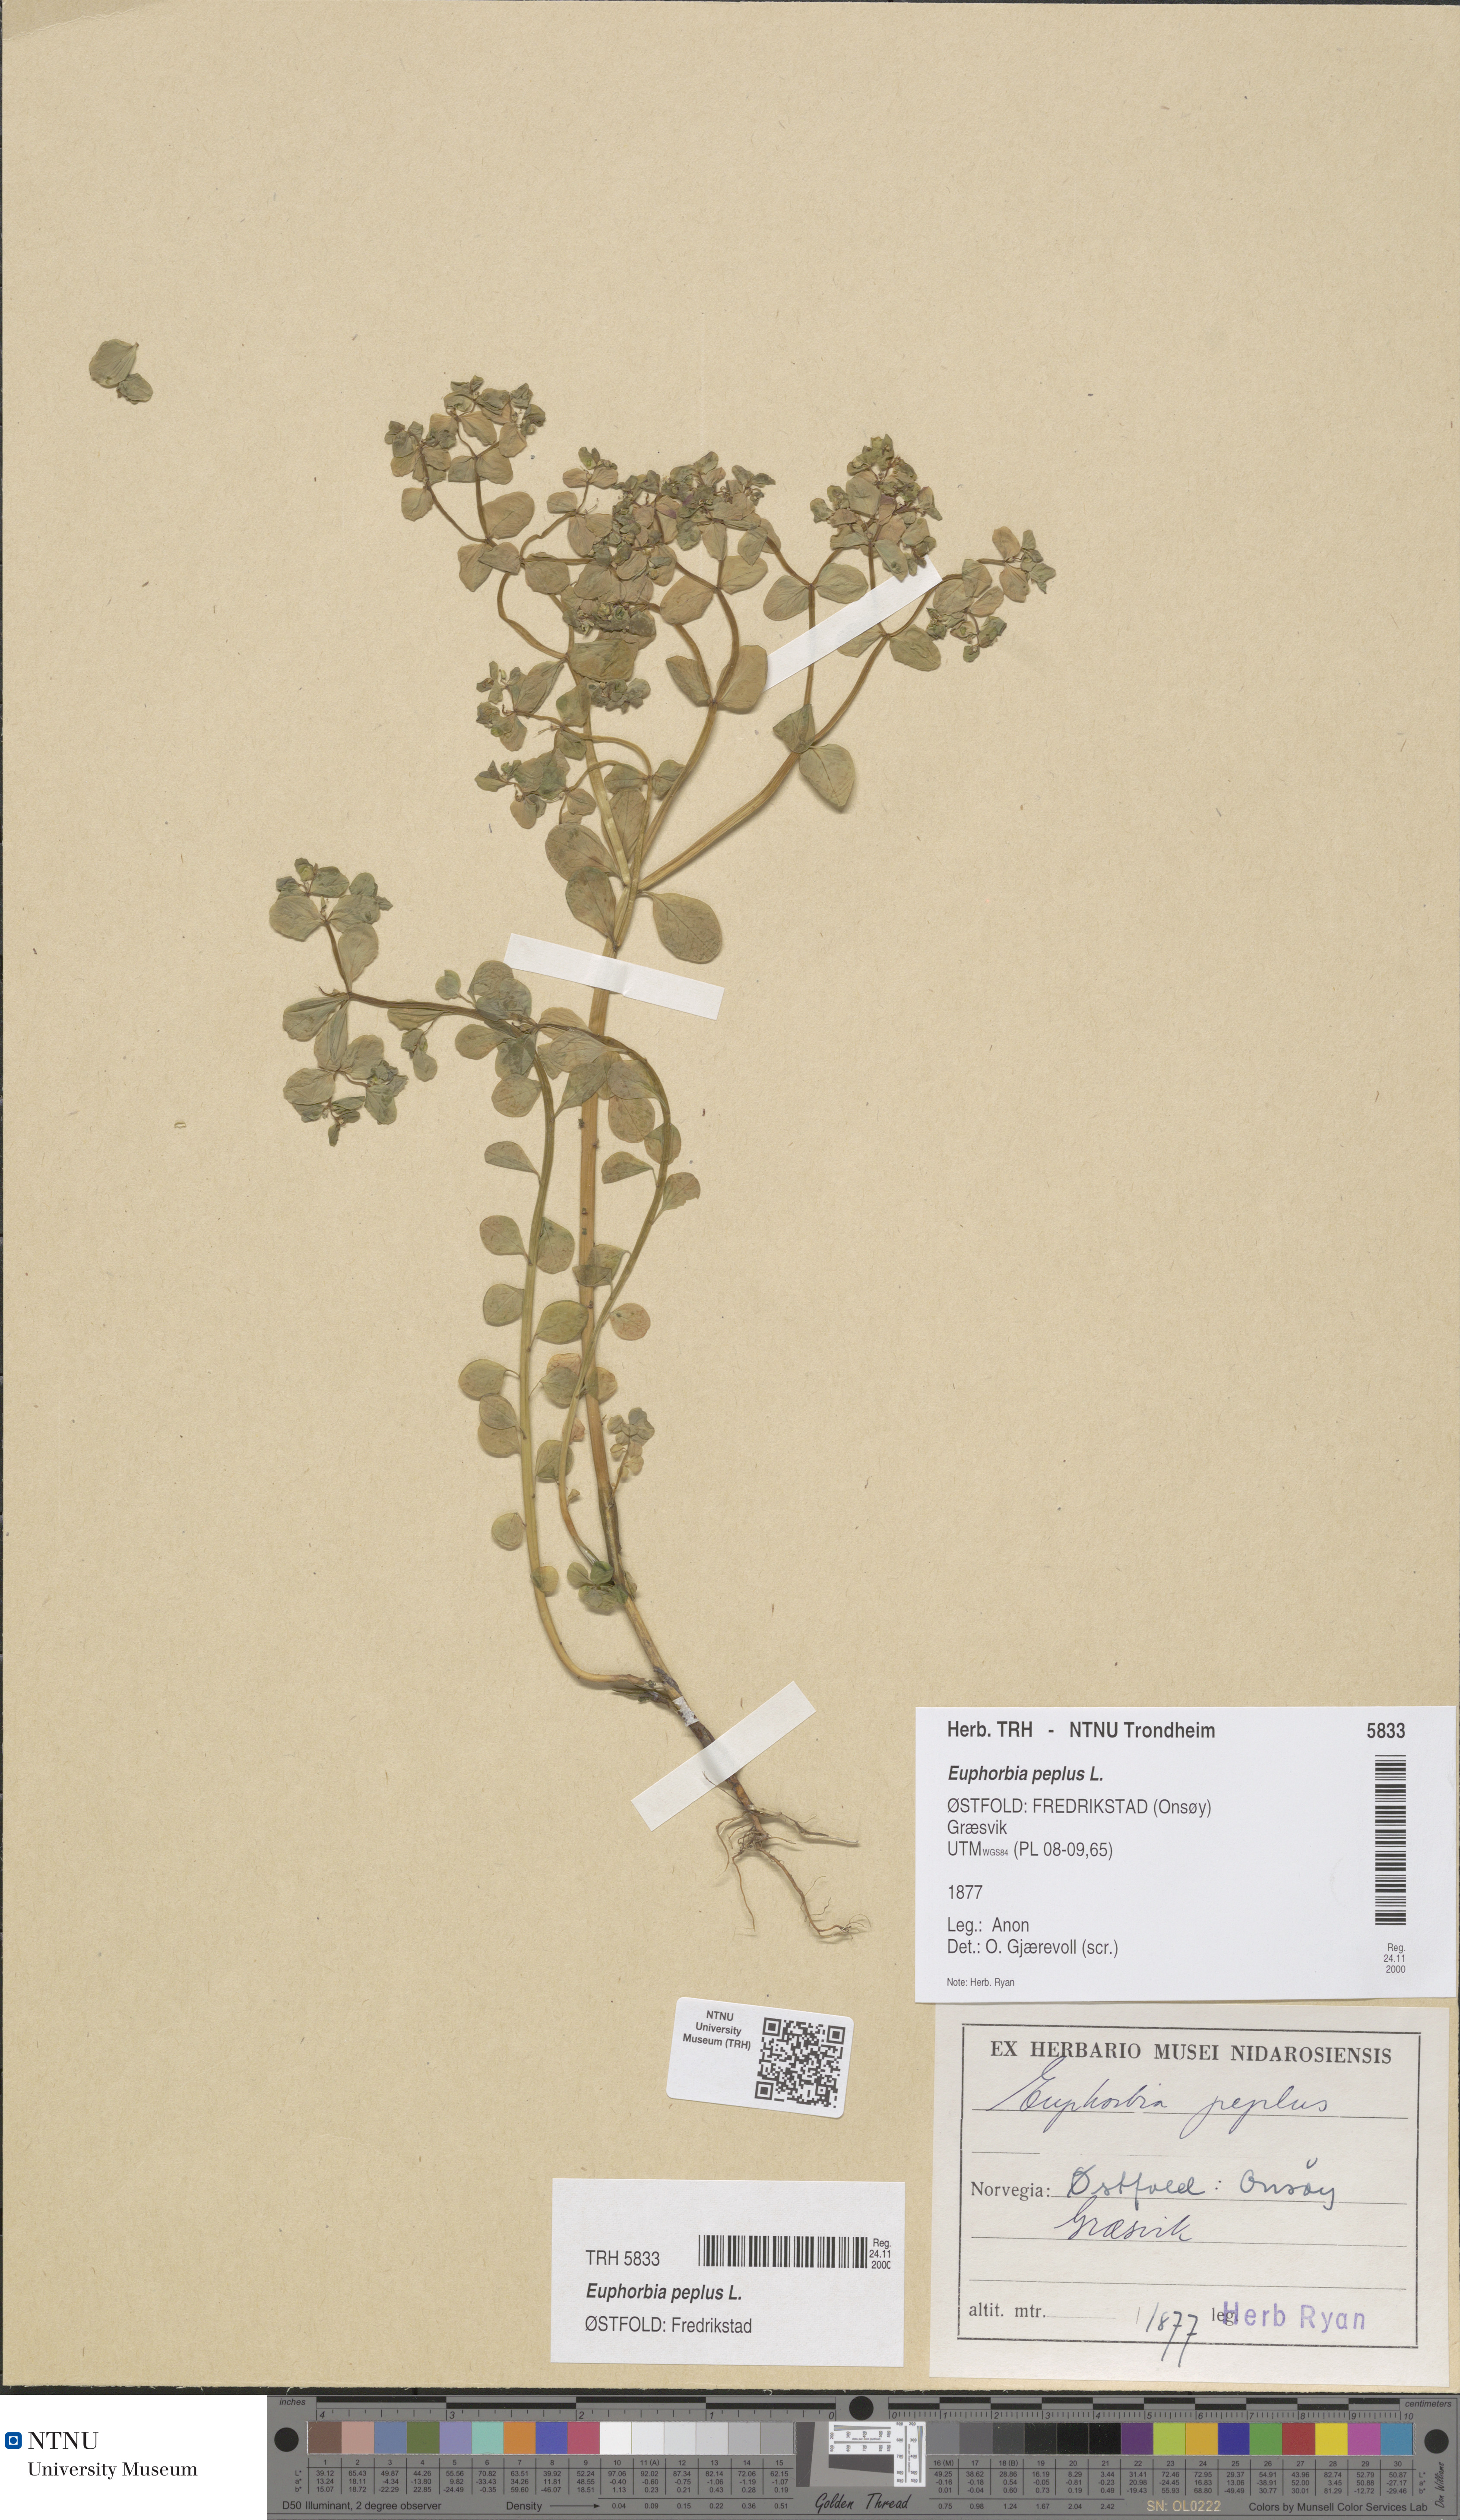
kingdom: Plantae
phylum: Tracheophyta
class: Magnoliopsida
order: Malpighiales
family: Euphorbiaceae
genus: Euphorbia
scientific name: Euphorbia peplus
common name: Petty spurge
